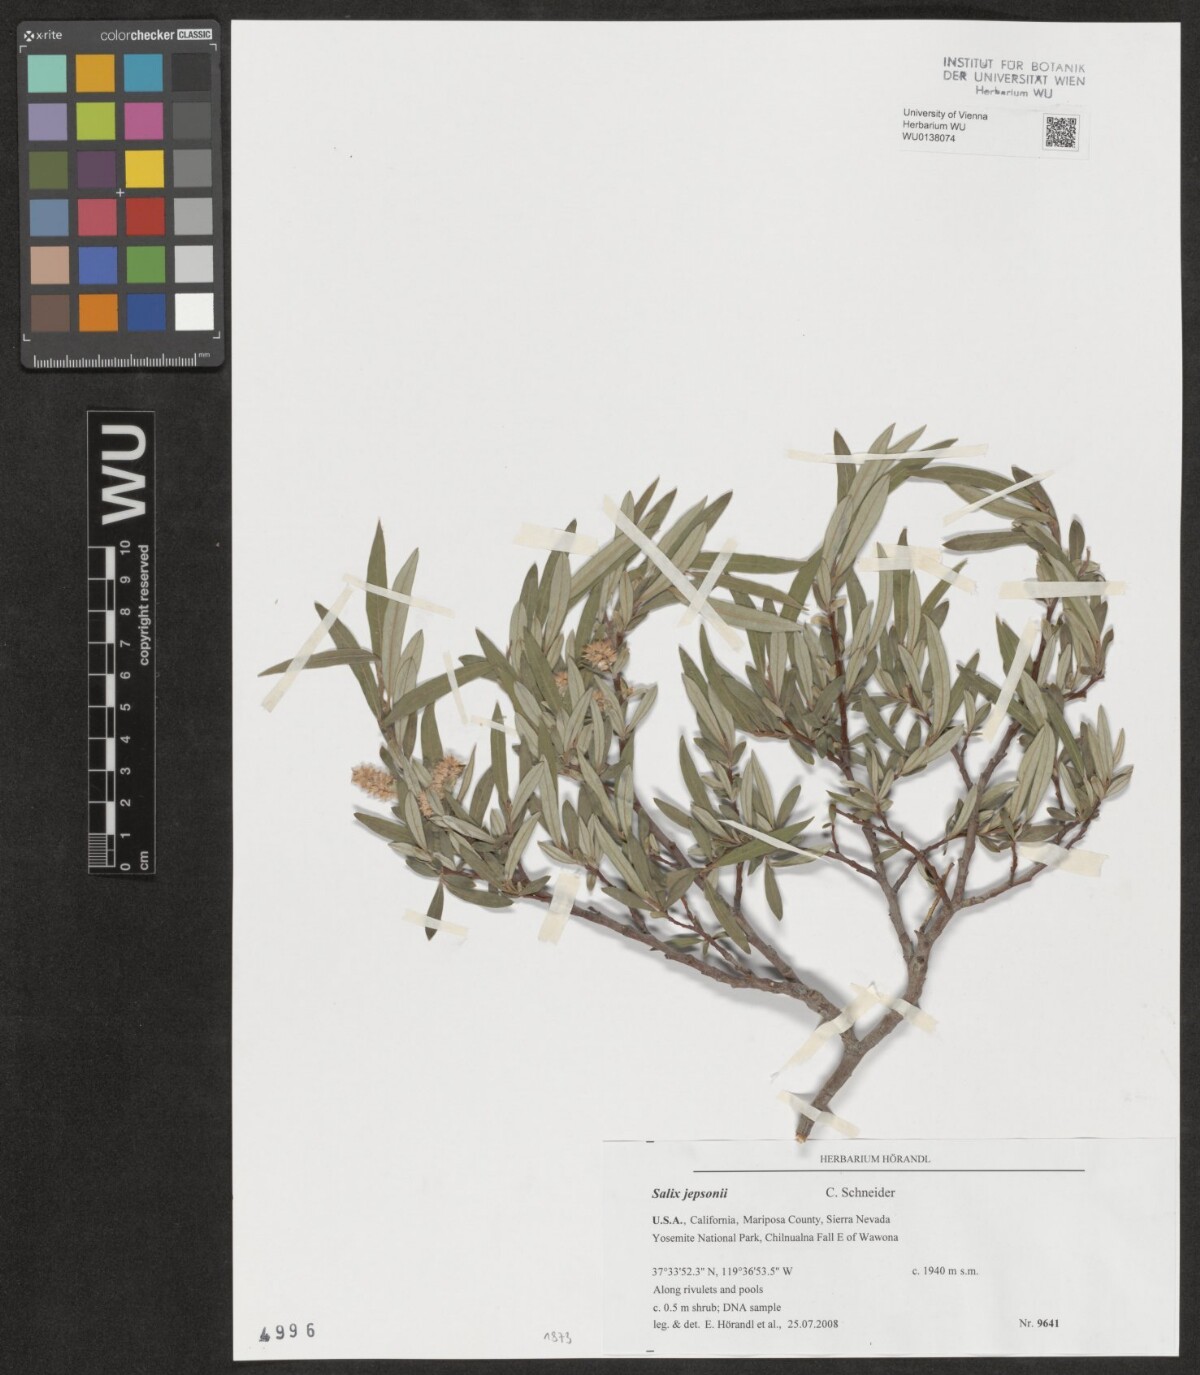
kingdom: Plantae
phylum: Tracheophyta
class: Magnoliopsida
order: Malpighiales
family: Salicaceae
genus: Salix
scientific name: Salix jepsonii
